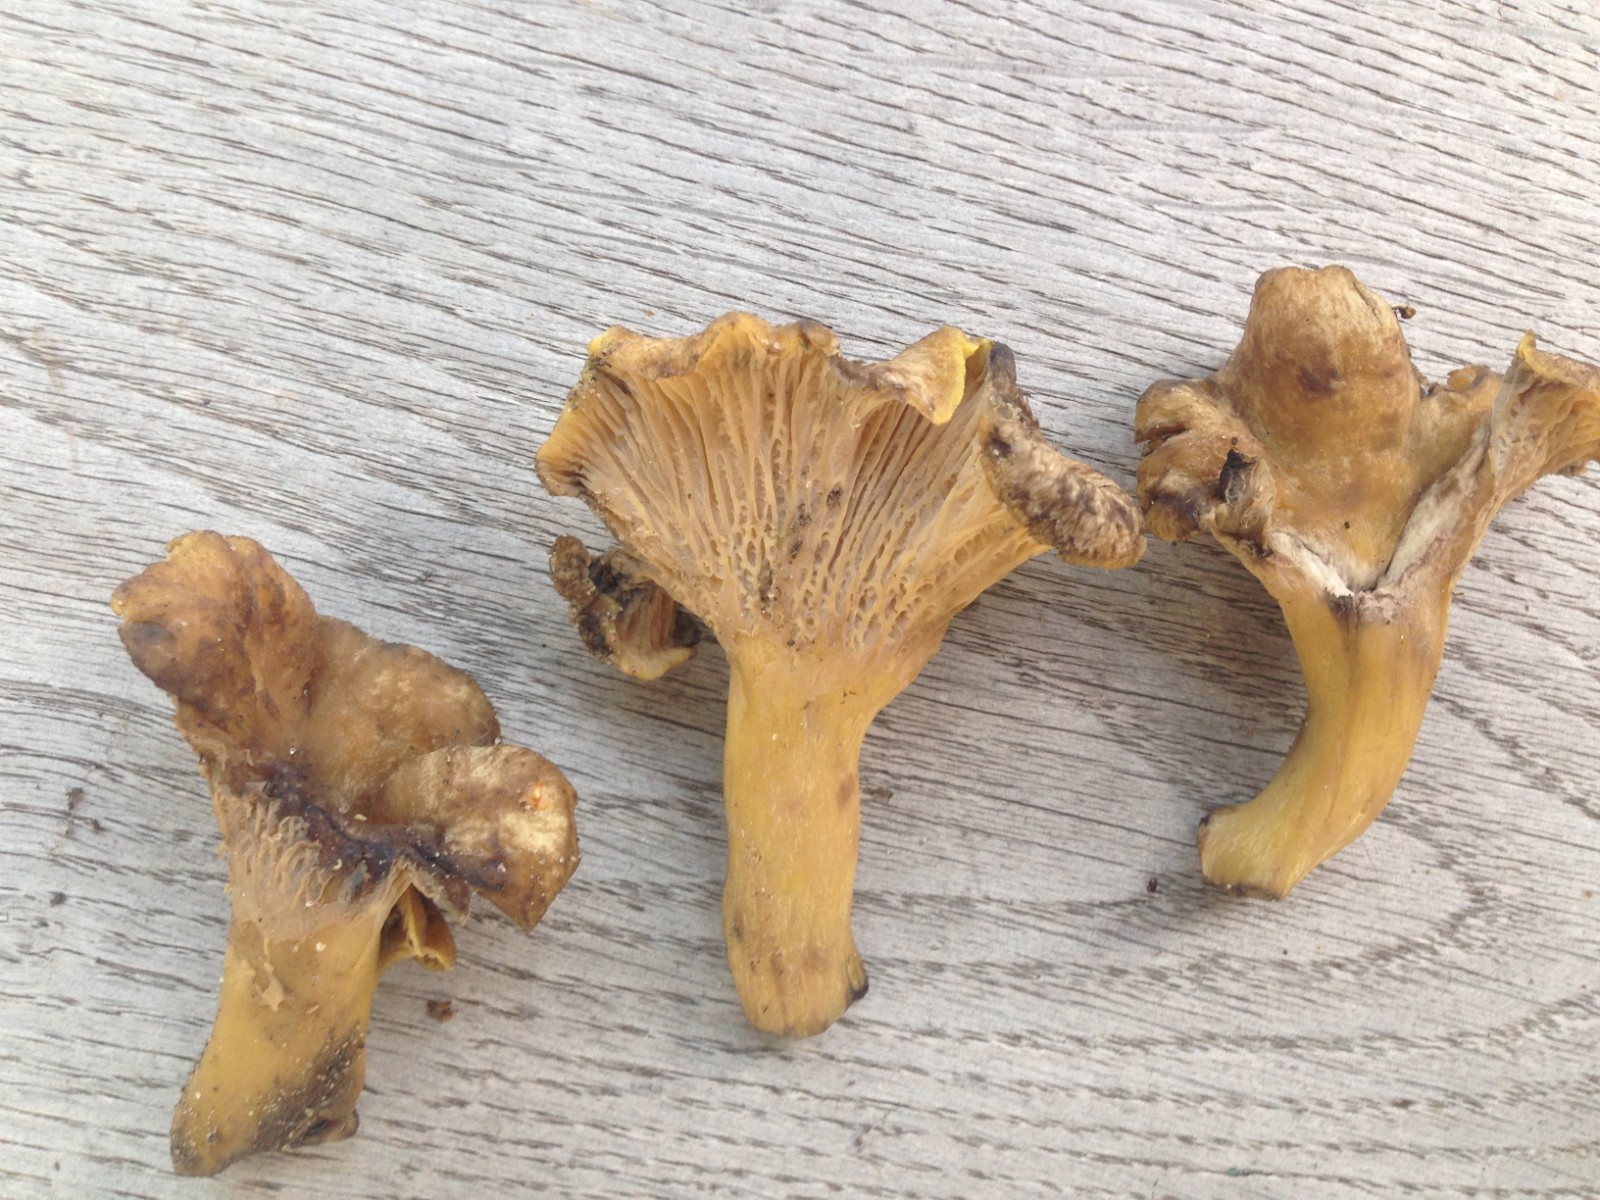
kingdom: Fungi
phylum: Basidiomycota
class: Agaricomycetes
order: Cantharellales
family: Hydnaceae
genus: Cantharellus
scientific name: Cantharellus melanoxeros
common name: sværtende kantarel
